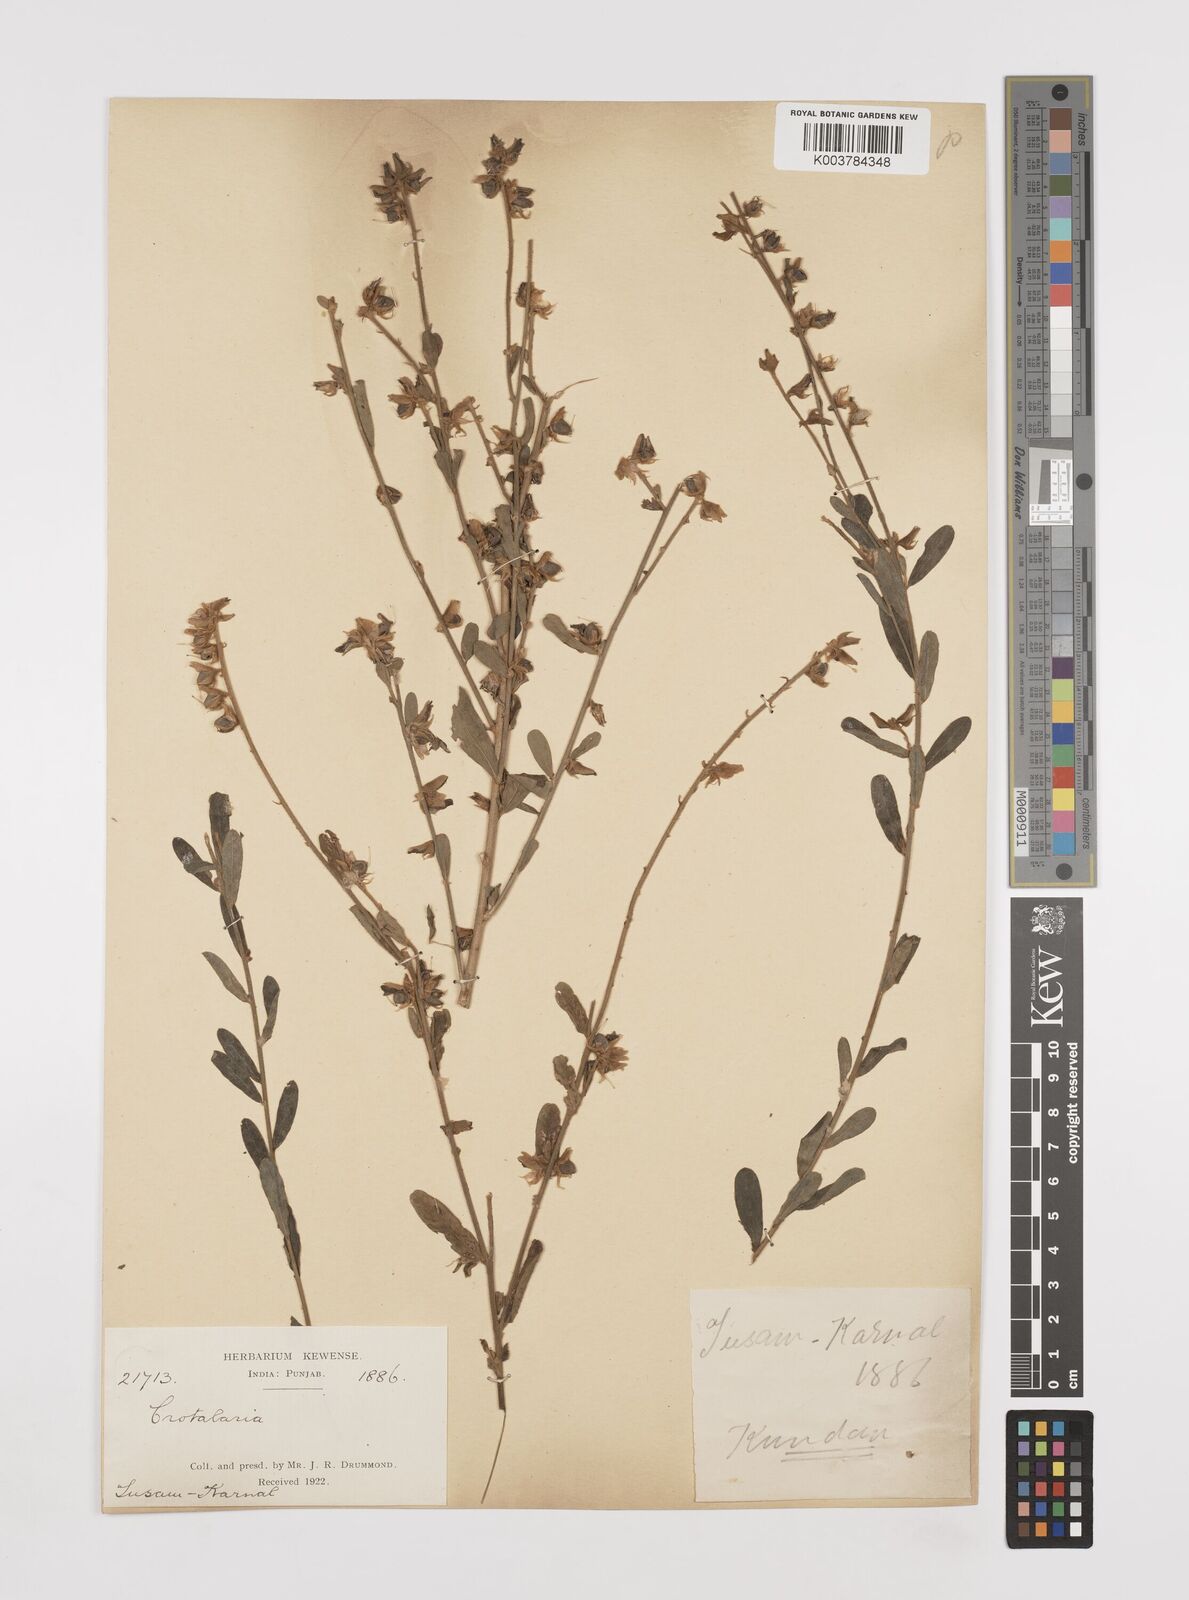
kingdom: Plantae
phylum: Tracheophyta
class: Magnoliopsida
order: Fabales
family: Fabaceae
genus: Crotalaria
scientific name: Crotalaria linifolia
